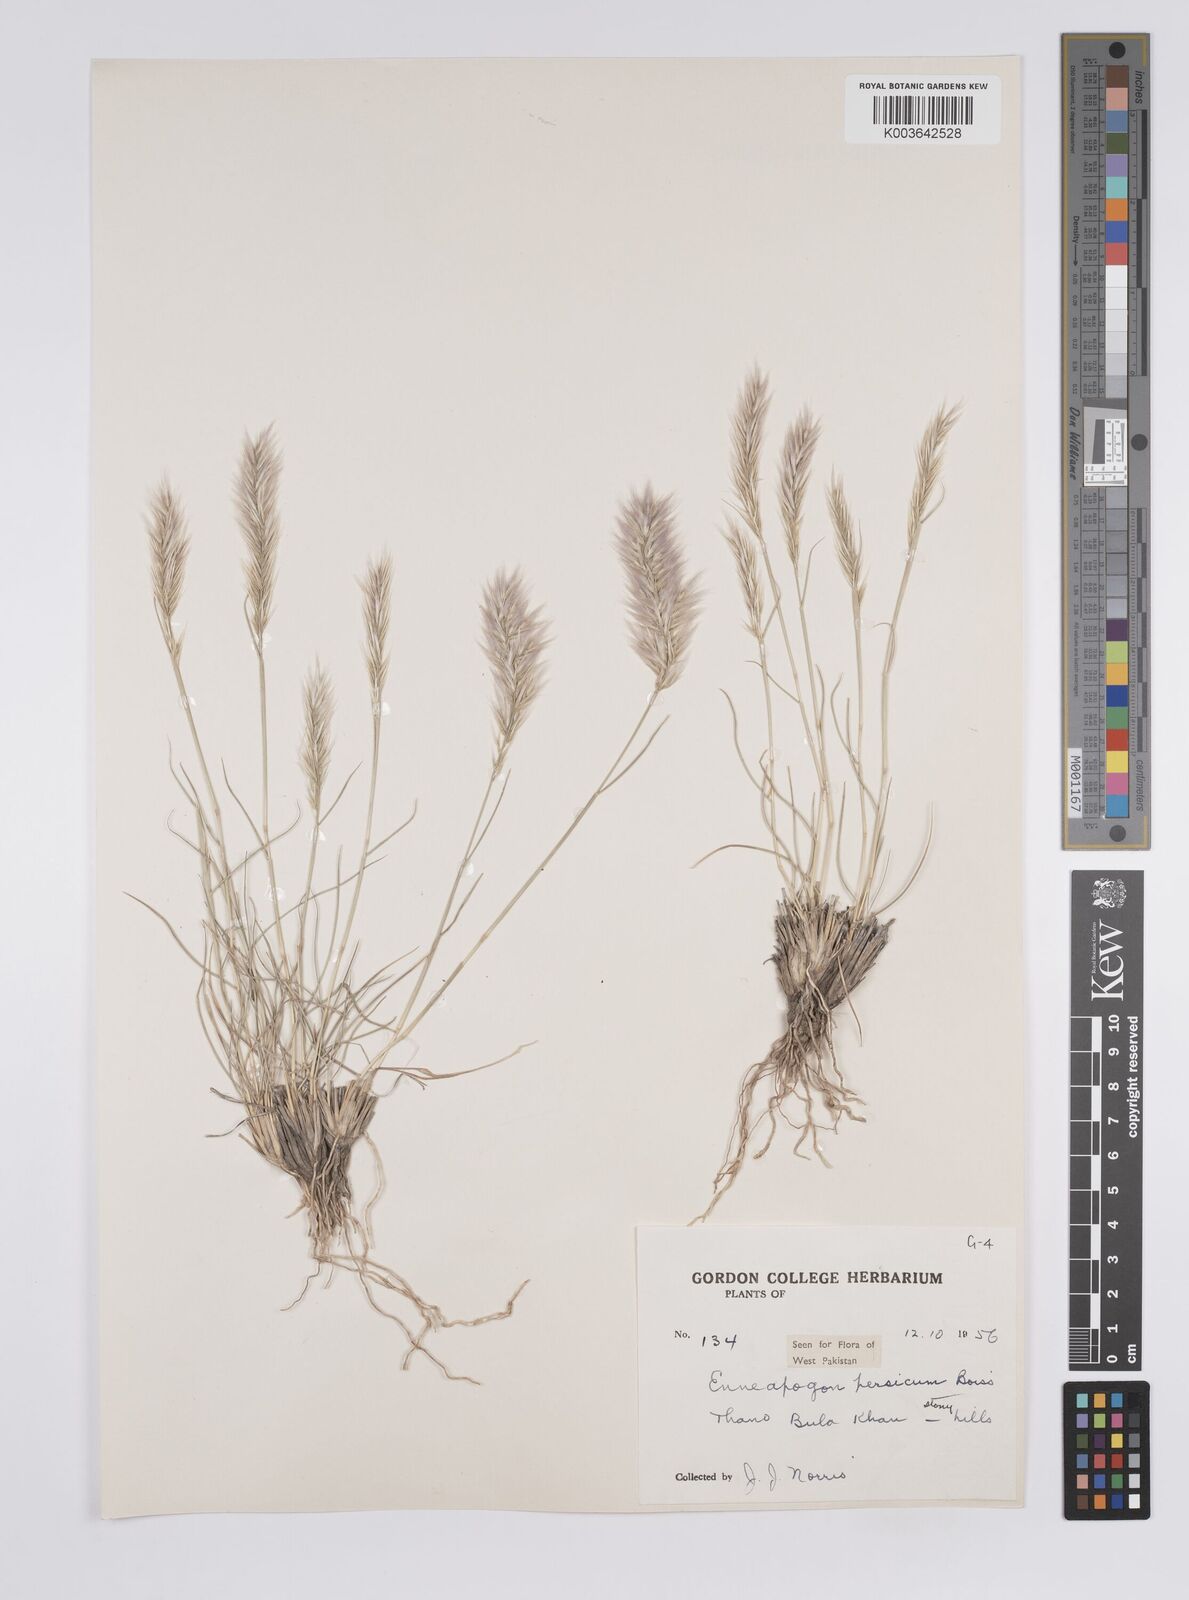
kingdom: Plantae
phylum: Tracheophyta
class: Liliopsida
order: Poales
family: Poaceae
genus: Enneapogon
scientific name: Enneapogon persicus
